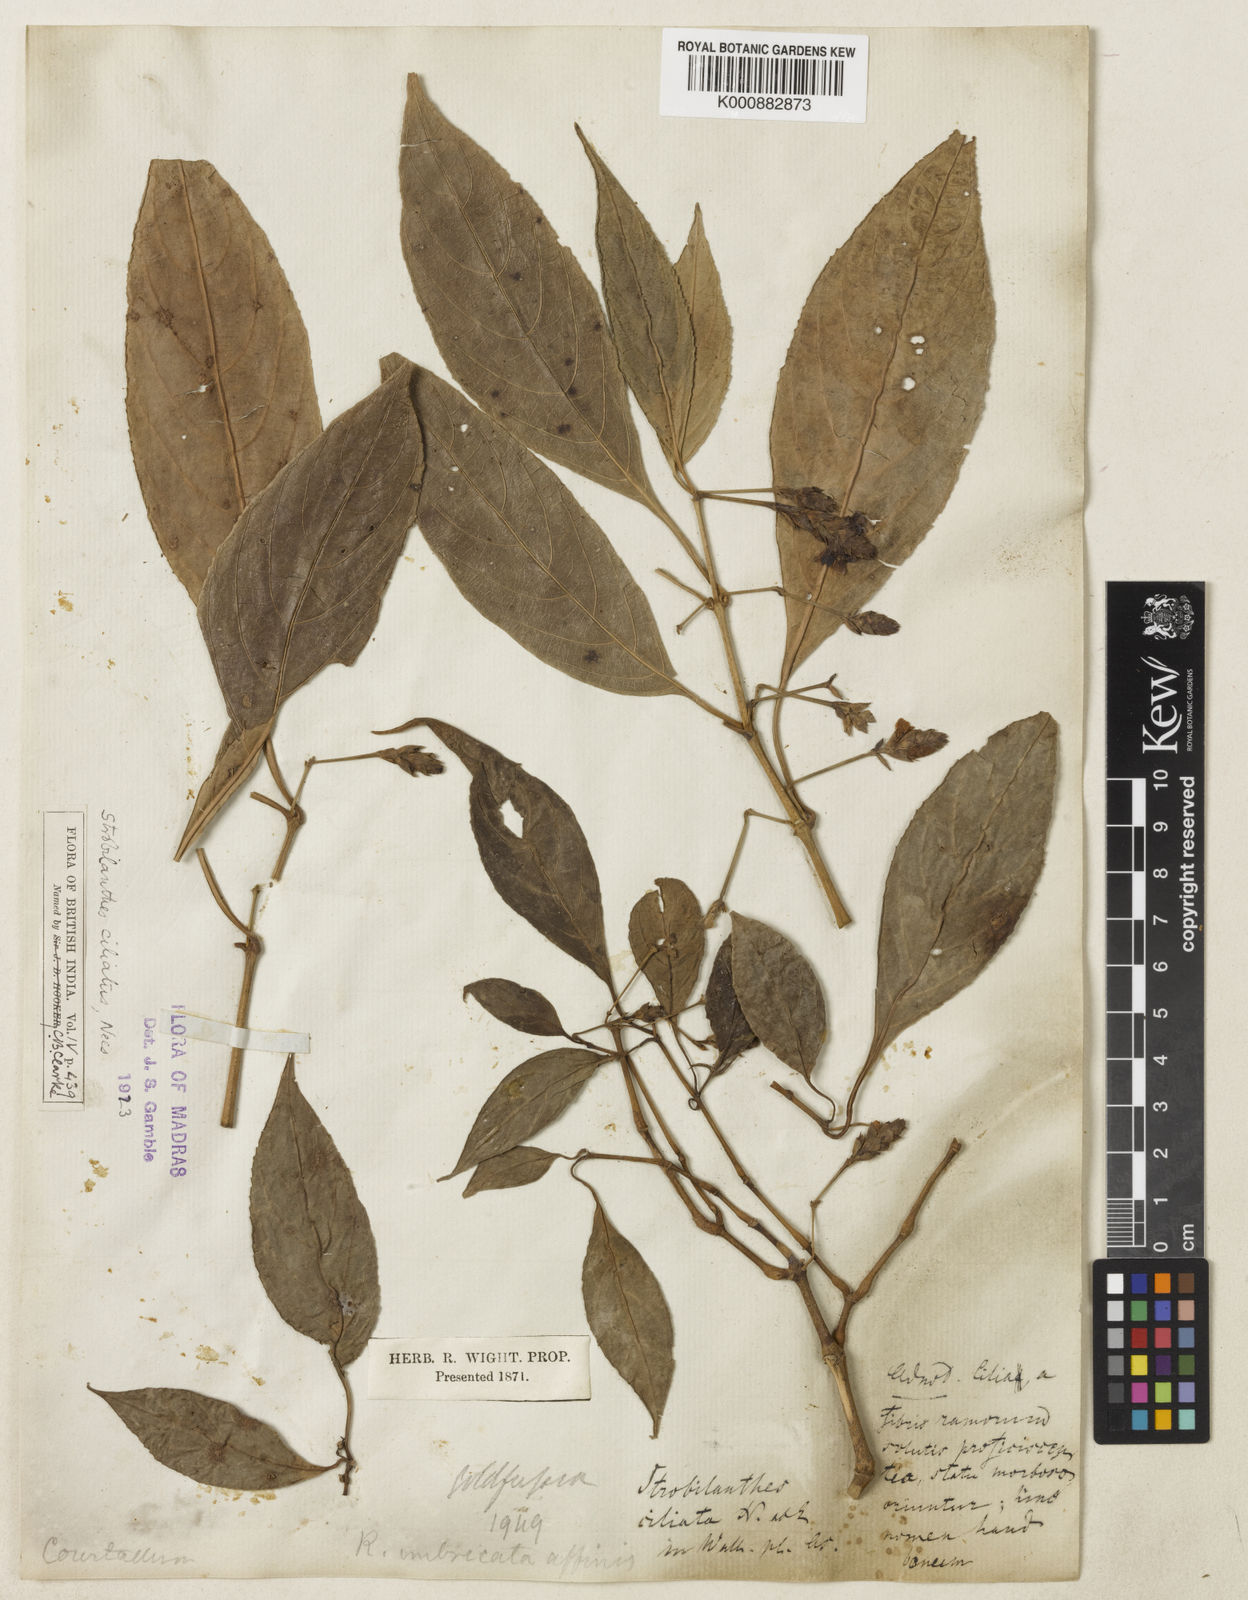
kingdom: Plantae
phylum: Tracheophyta
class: Magnoliopsida
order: Lamiales
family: Acanthaceae
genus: Strobilanthes
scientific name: Strobilanthes ciliata
